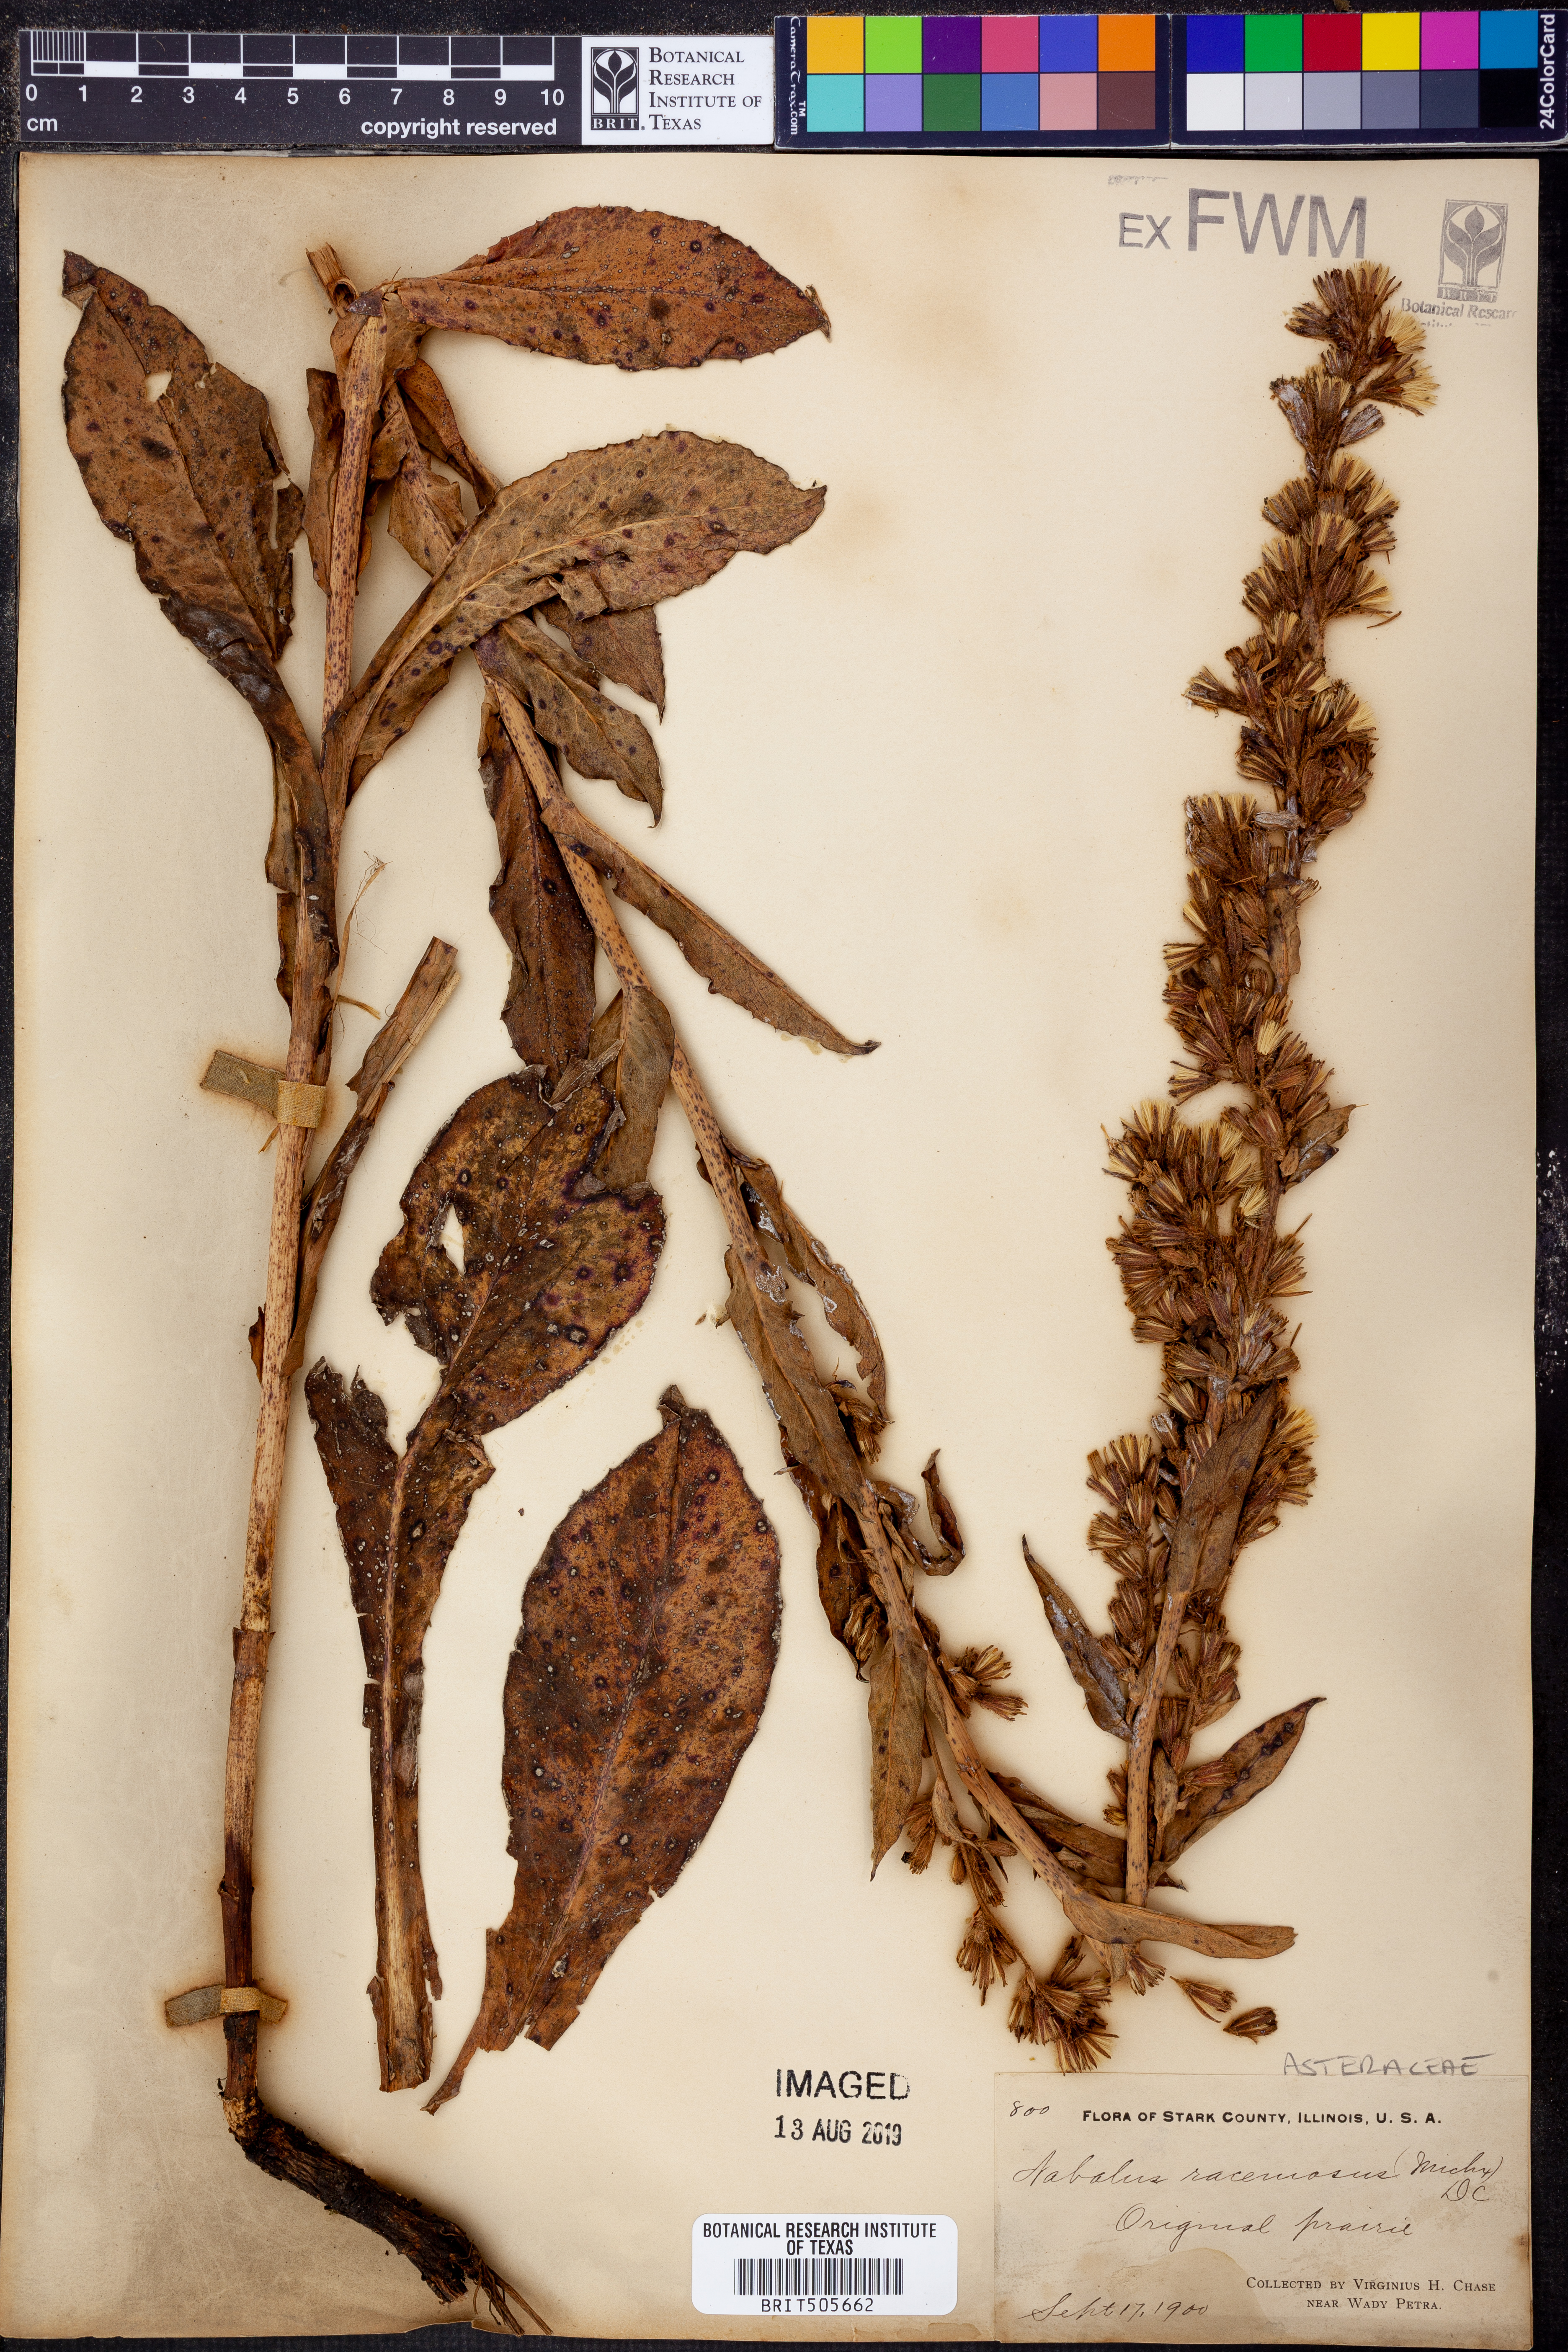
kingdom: Plantae
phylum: Tracheophyta
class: Magnoliopsida
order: Asterales
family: Asteraceae
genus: Nabalus
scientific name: Nabalus racemosus
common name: Glaucous white lettuce
